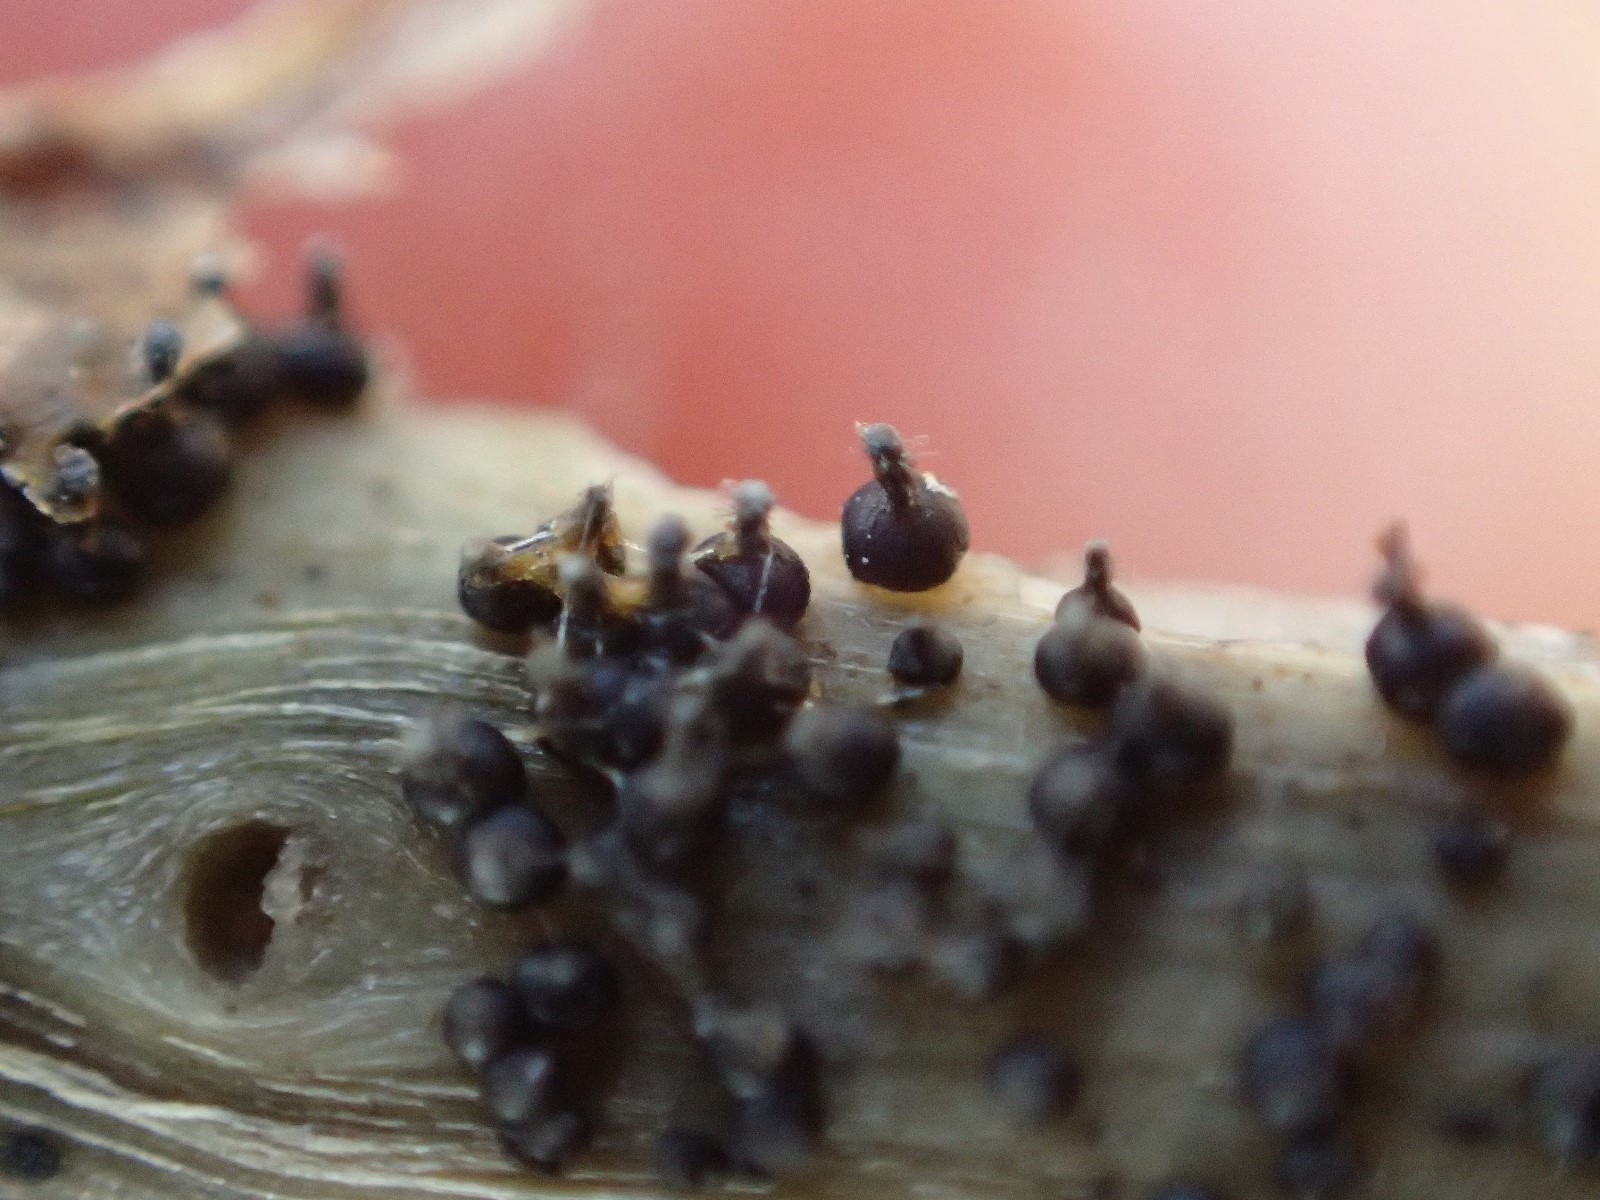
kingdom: Fungi
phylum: Ascomycota
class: Dothideomycetes
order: Pleosporales
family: Leptosphaeriaceae
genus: Leptosphaeria
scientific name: Leptosphaeria
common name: kulkegle
